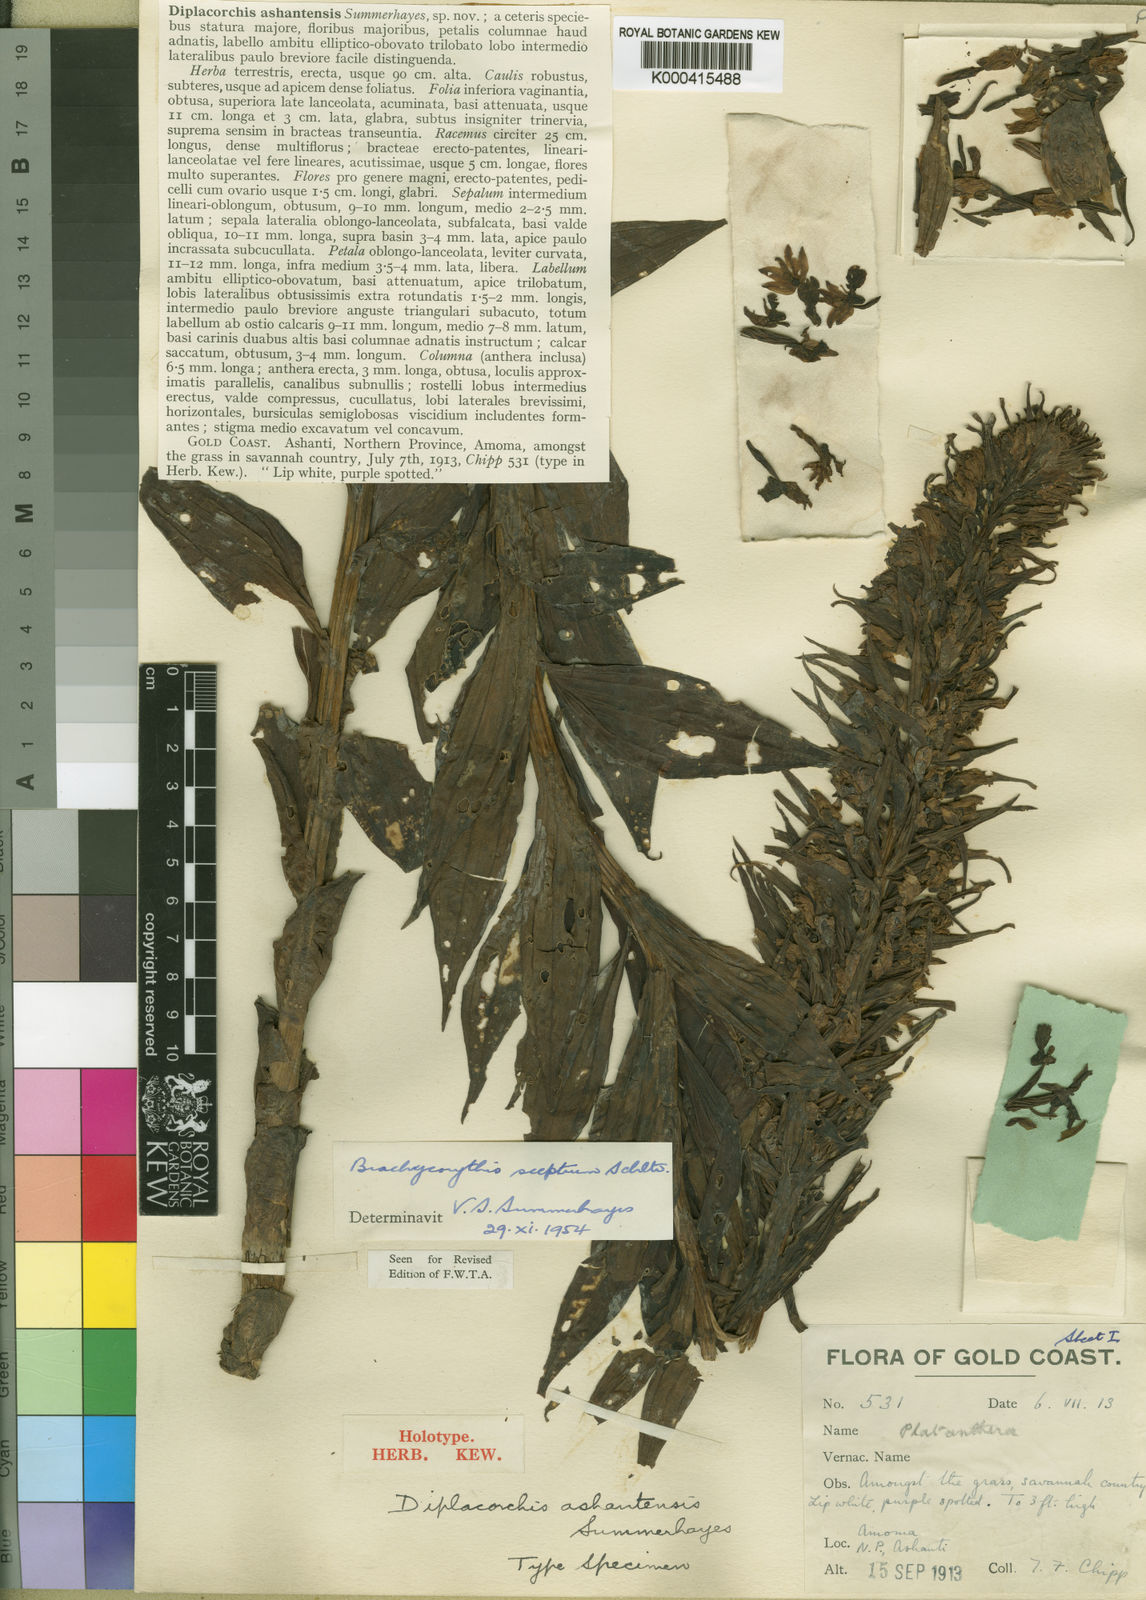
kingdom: Plantae
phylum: Tracheophyta
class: Liliopsida
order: Asparagales
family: Orchidaceae
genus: Brachycorythis
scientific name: Brachycorythis sceptrum
